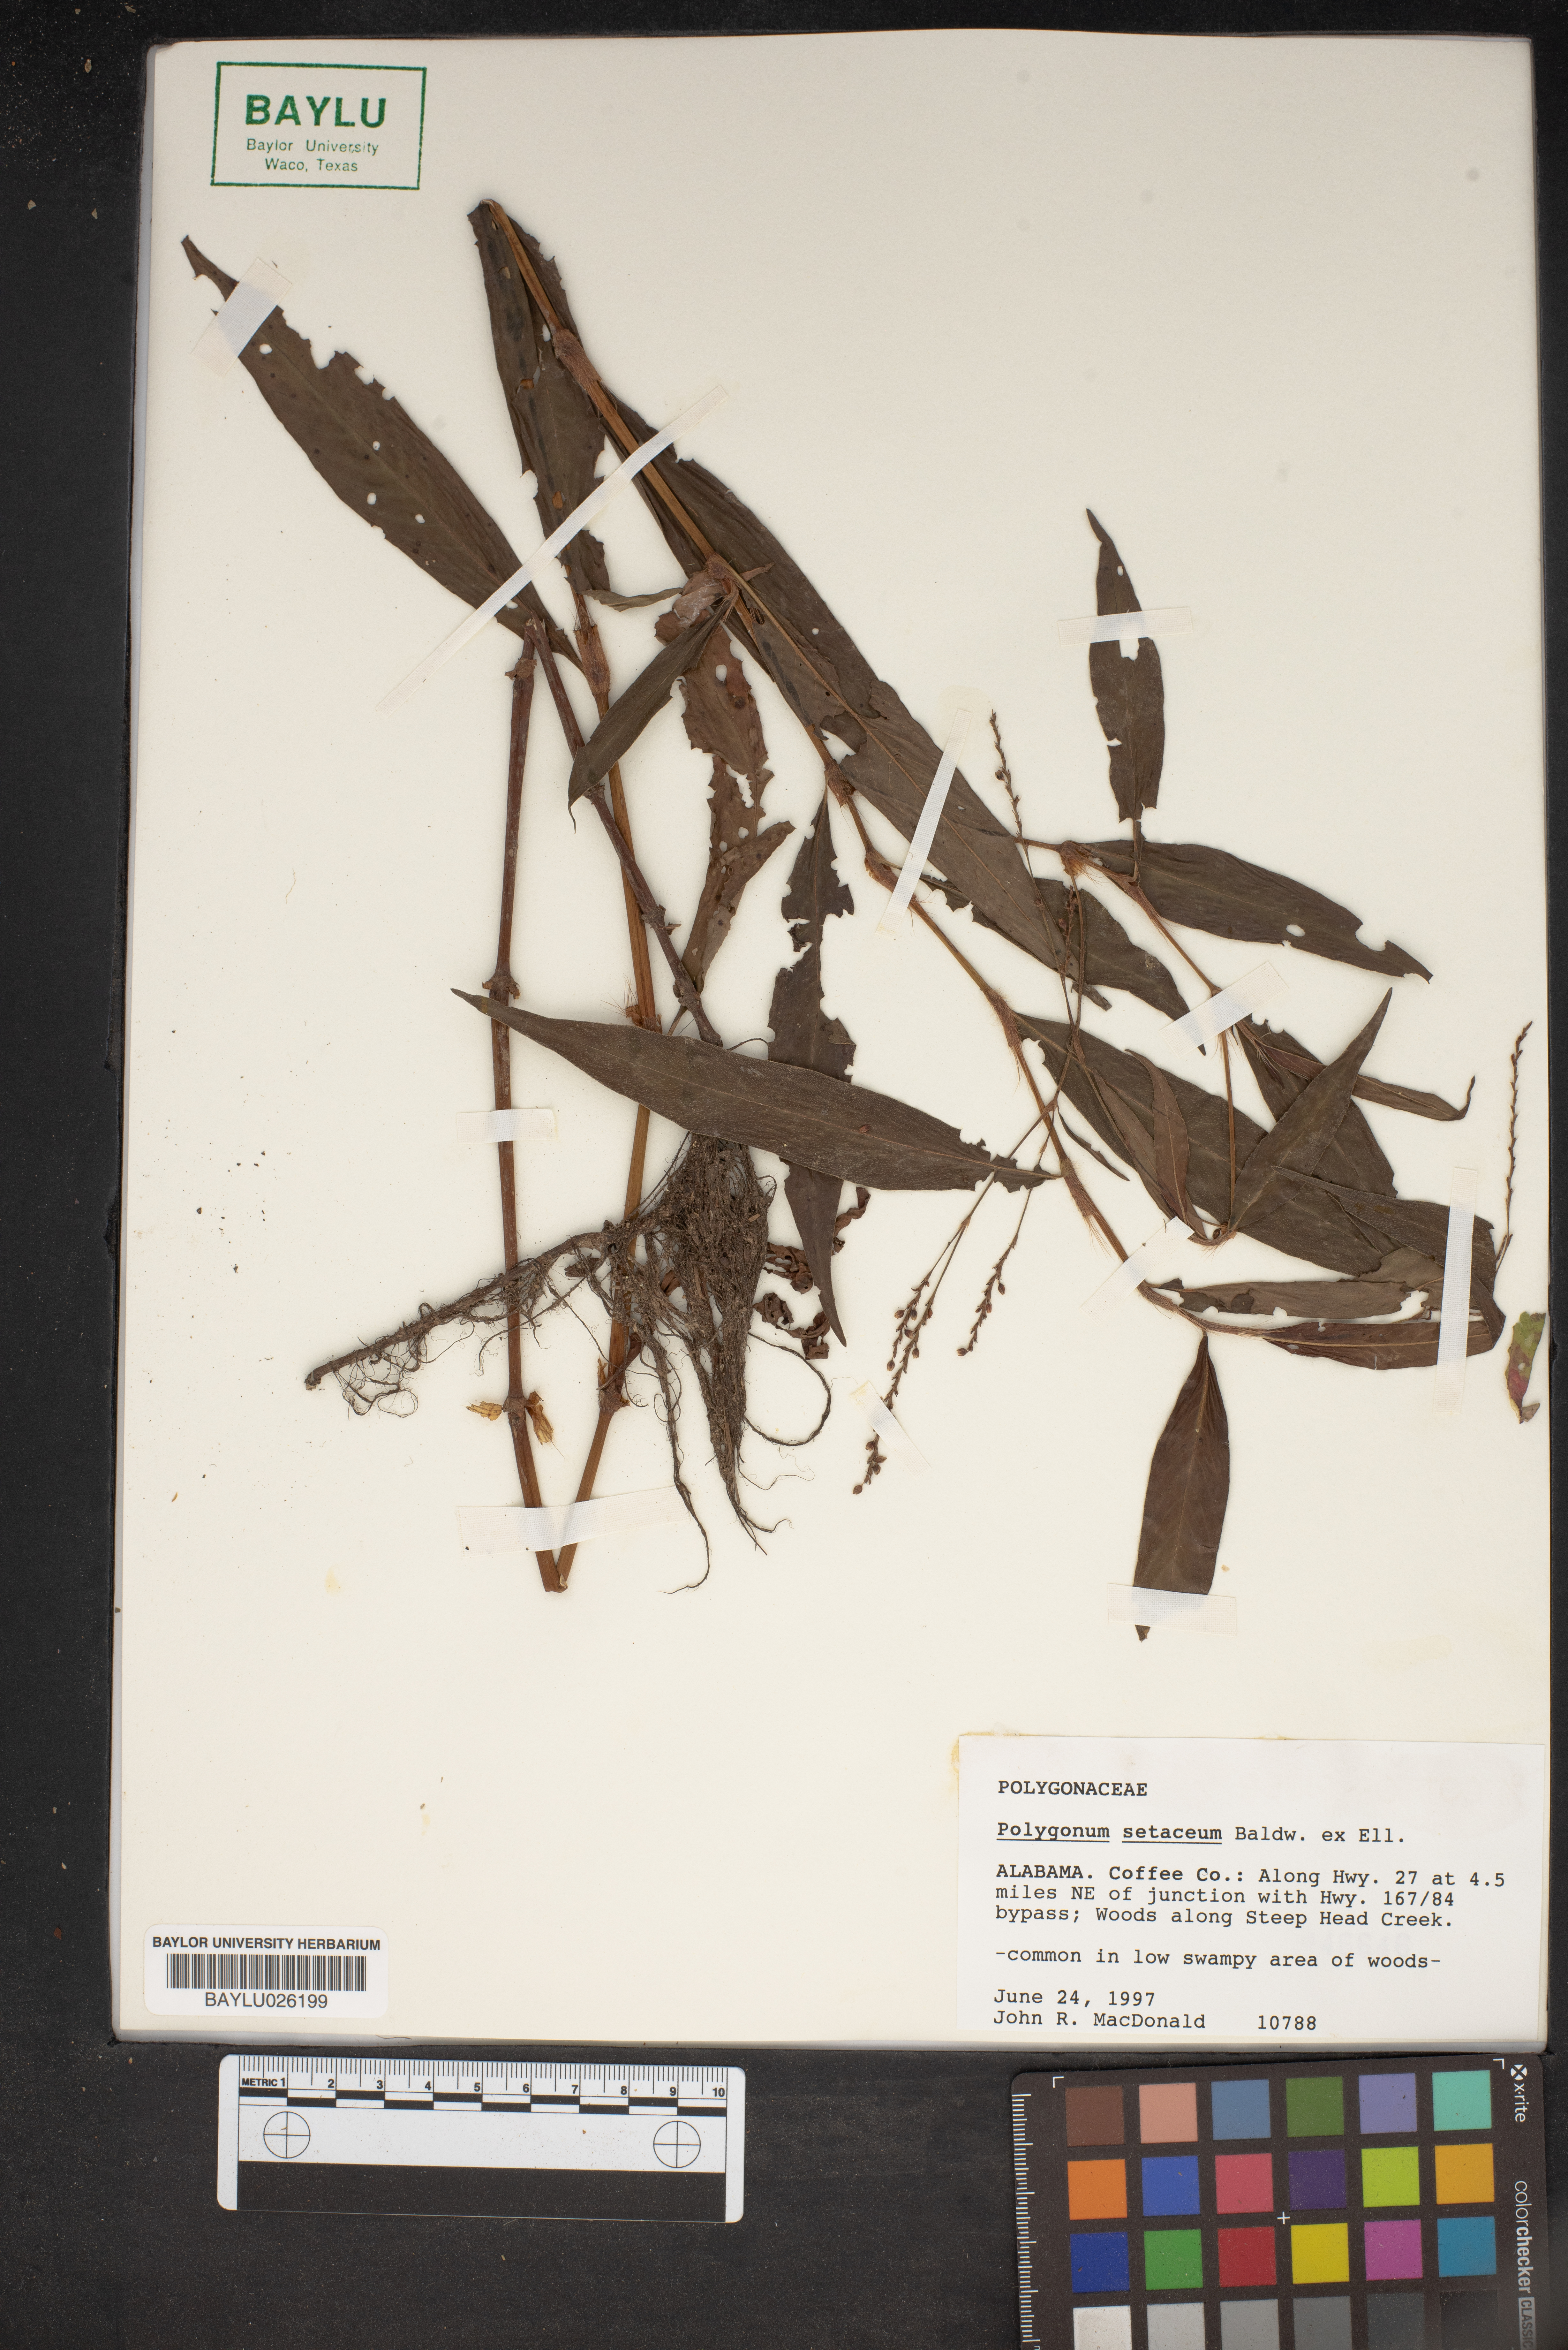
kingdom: Plantae
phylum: Tracheophyta
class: Magnoliopsida
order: Caryophyllales
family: Polygonaceae
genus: Persicaria
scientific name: Persicaria setacea
